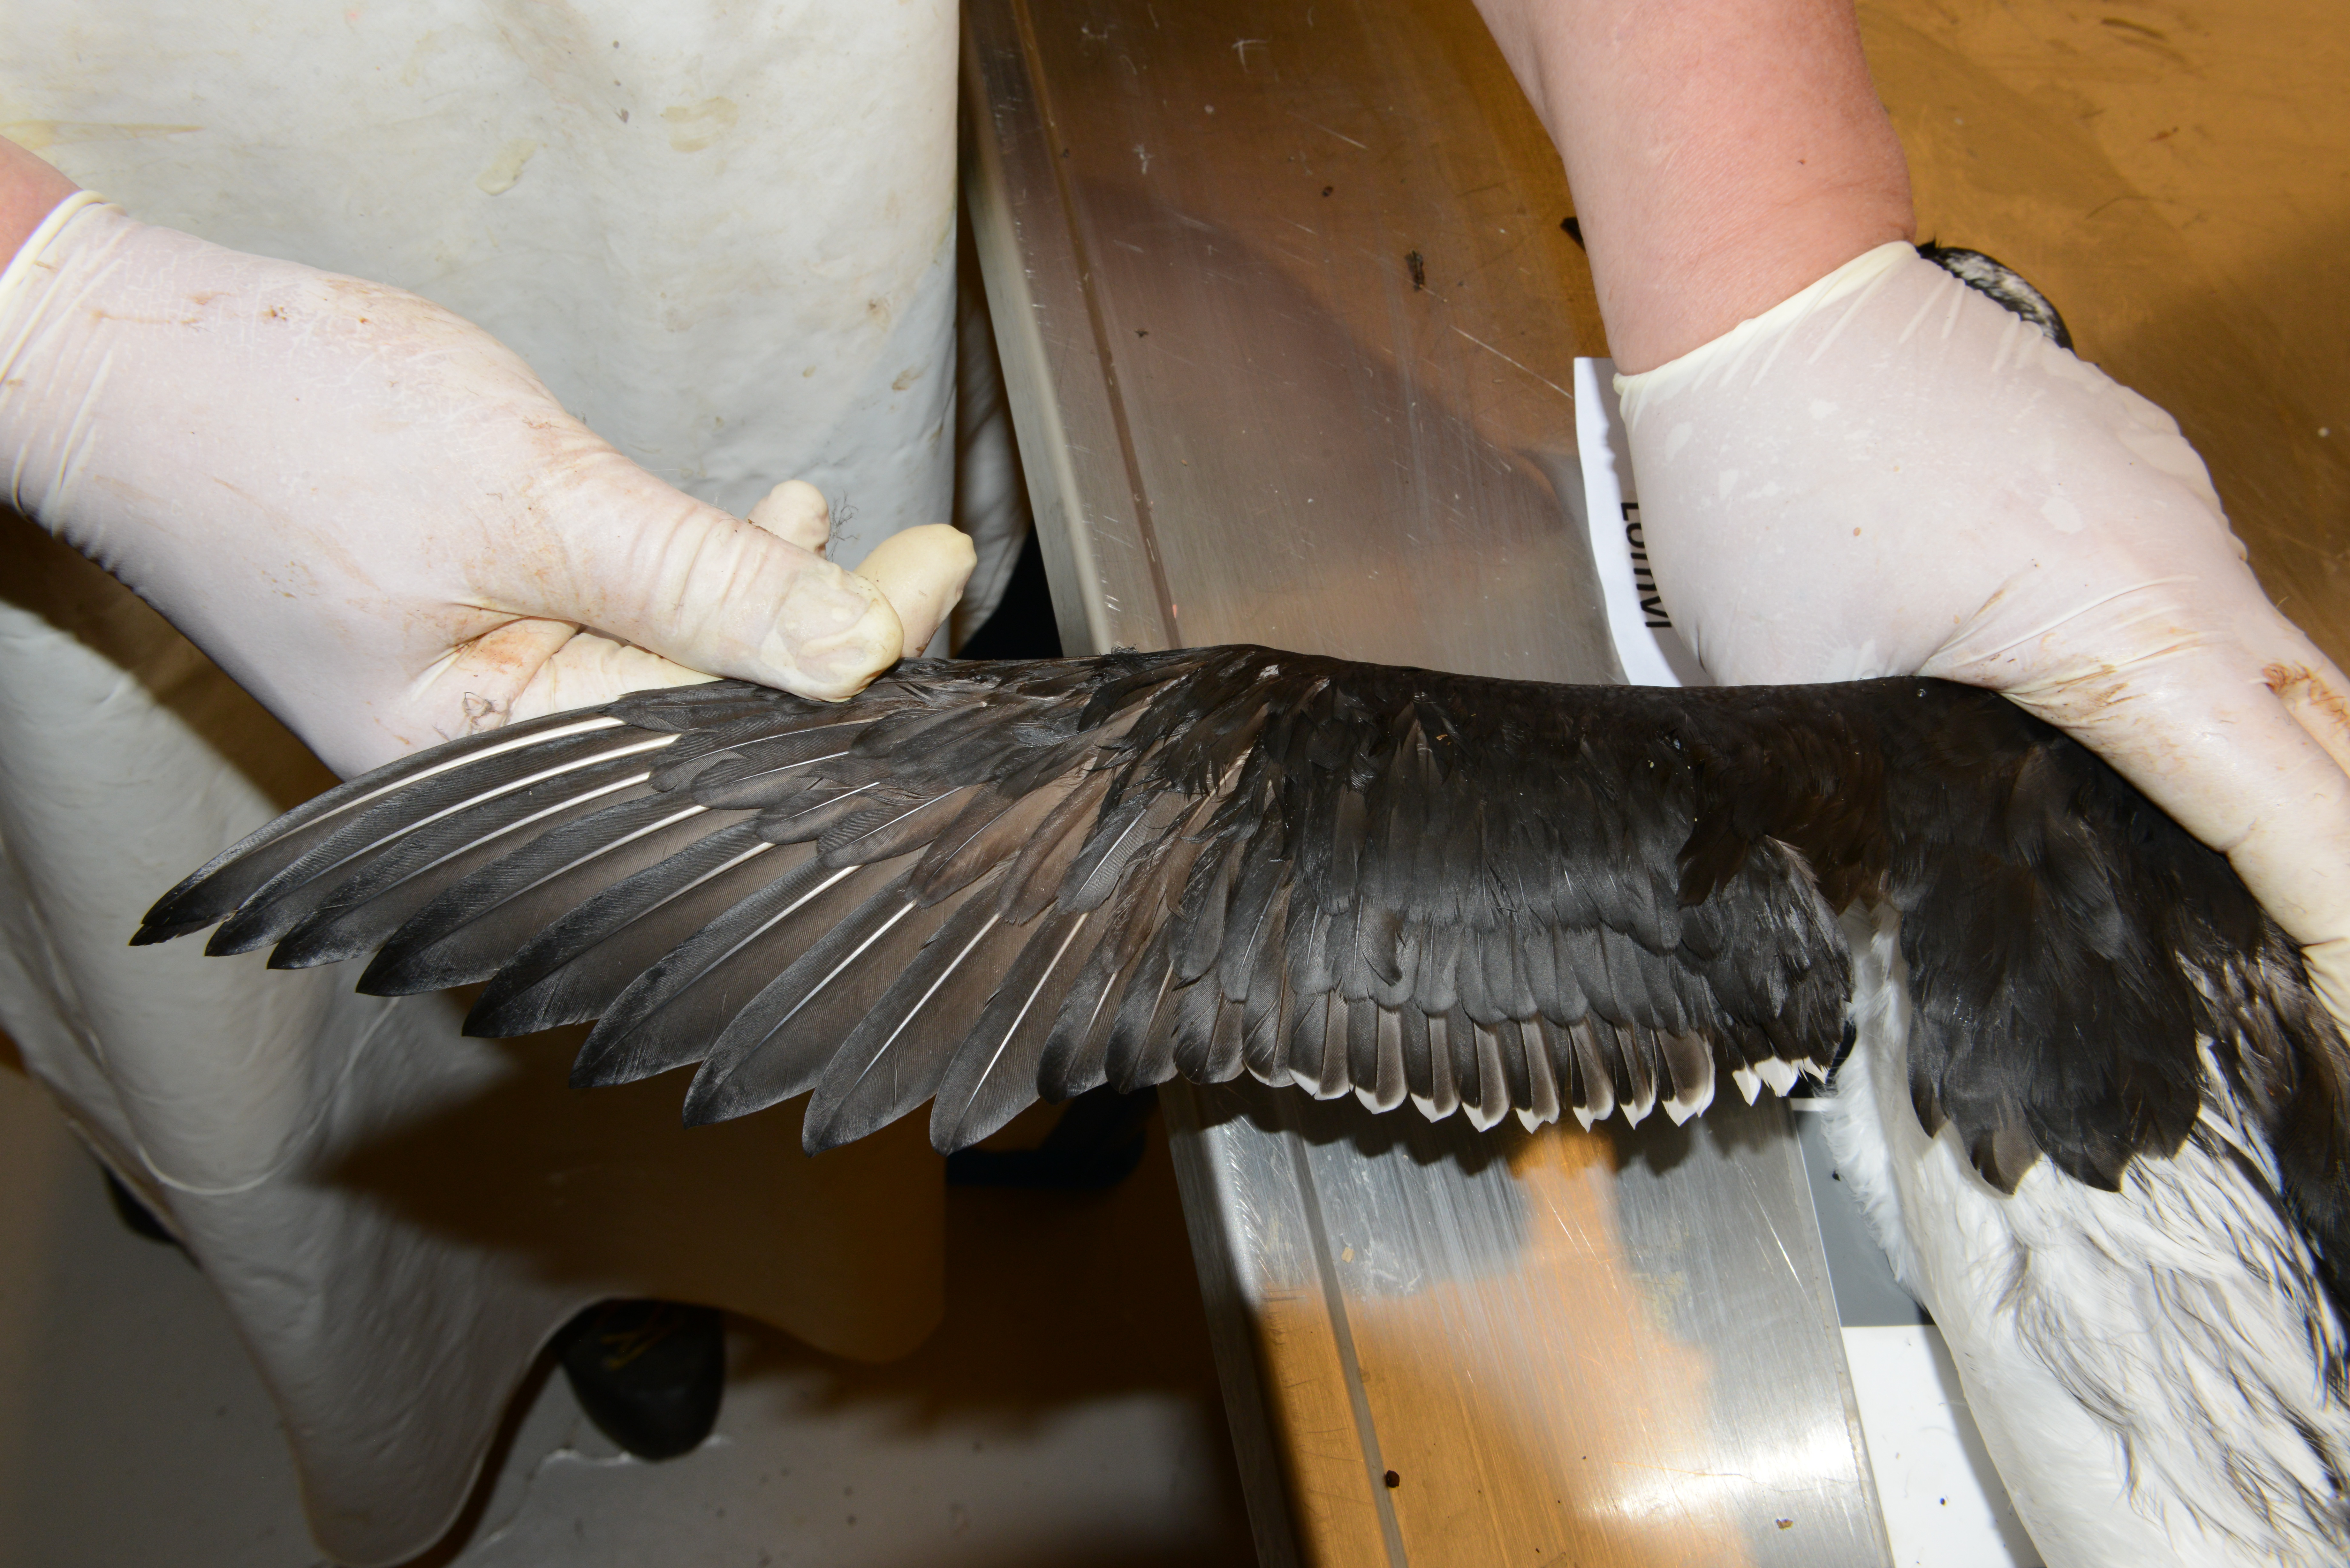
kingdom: Animalia
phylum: Chordata
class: Aves
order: Charadriiformes
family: Alcidae
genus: Uria
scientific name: Uria aalge
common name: Common murre
